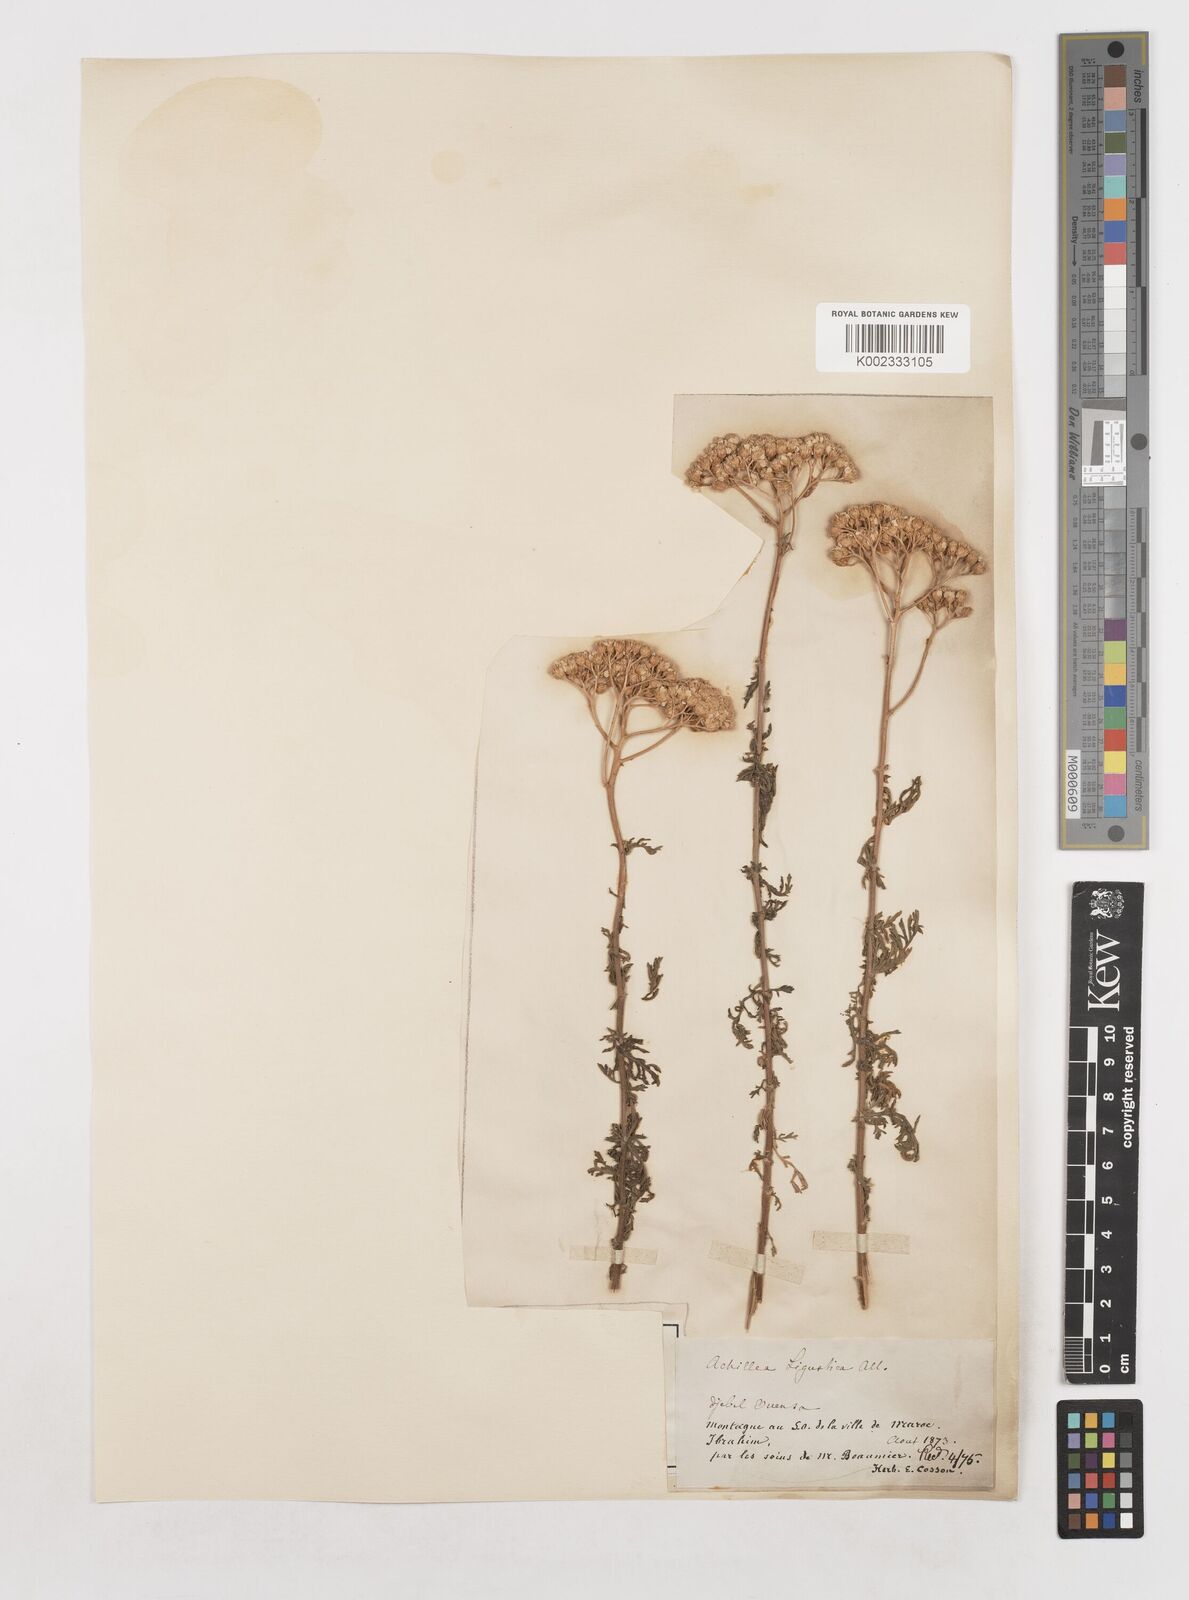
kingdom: Plantae
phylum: Tracheophyta
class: Magnoliopsida
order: Asterales
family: Asteraceae
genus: Achillea
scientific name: Achillea ligustica
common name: Southern yarrow
